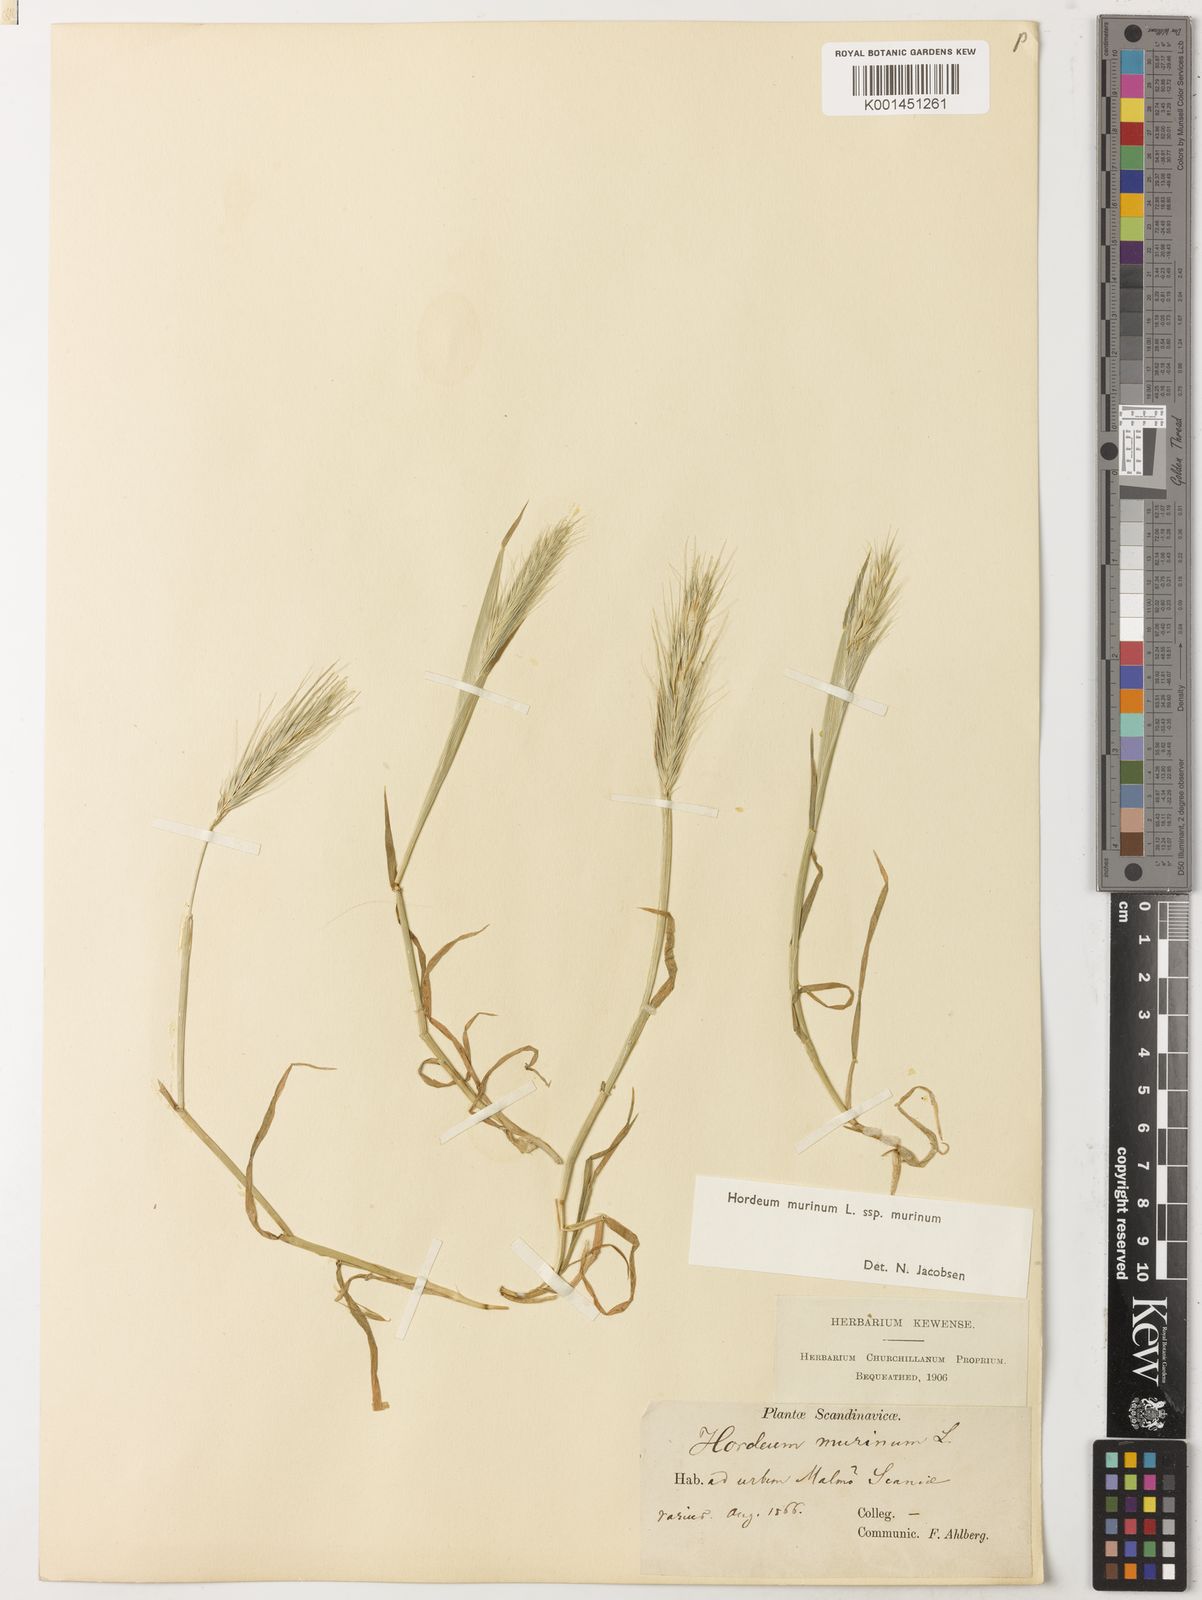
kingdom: Plantae
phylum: Tracheophyta
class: Liliopsida
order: Poales
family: Poaceae
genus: Hordeum
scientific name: Hordeum murinum
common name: Wall barley
